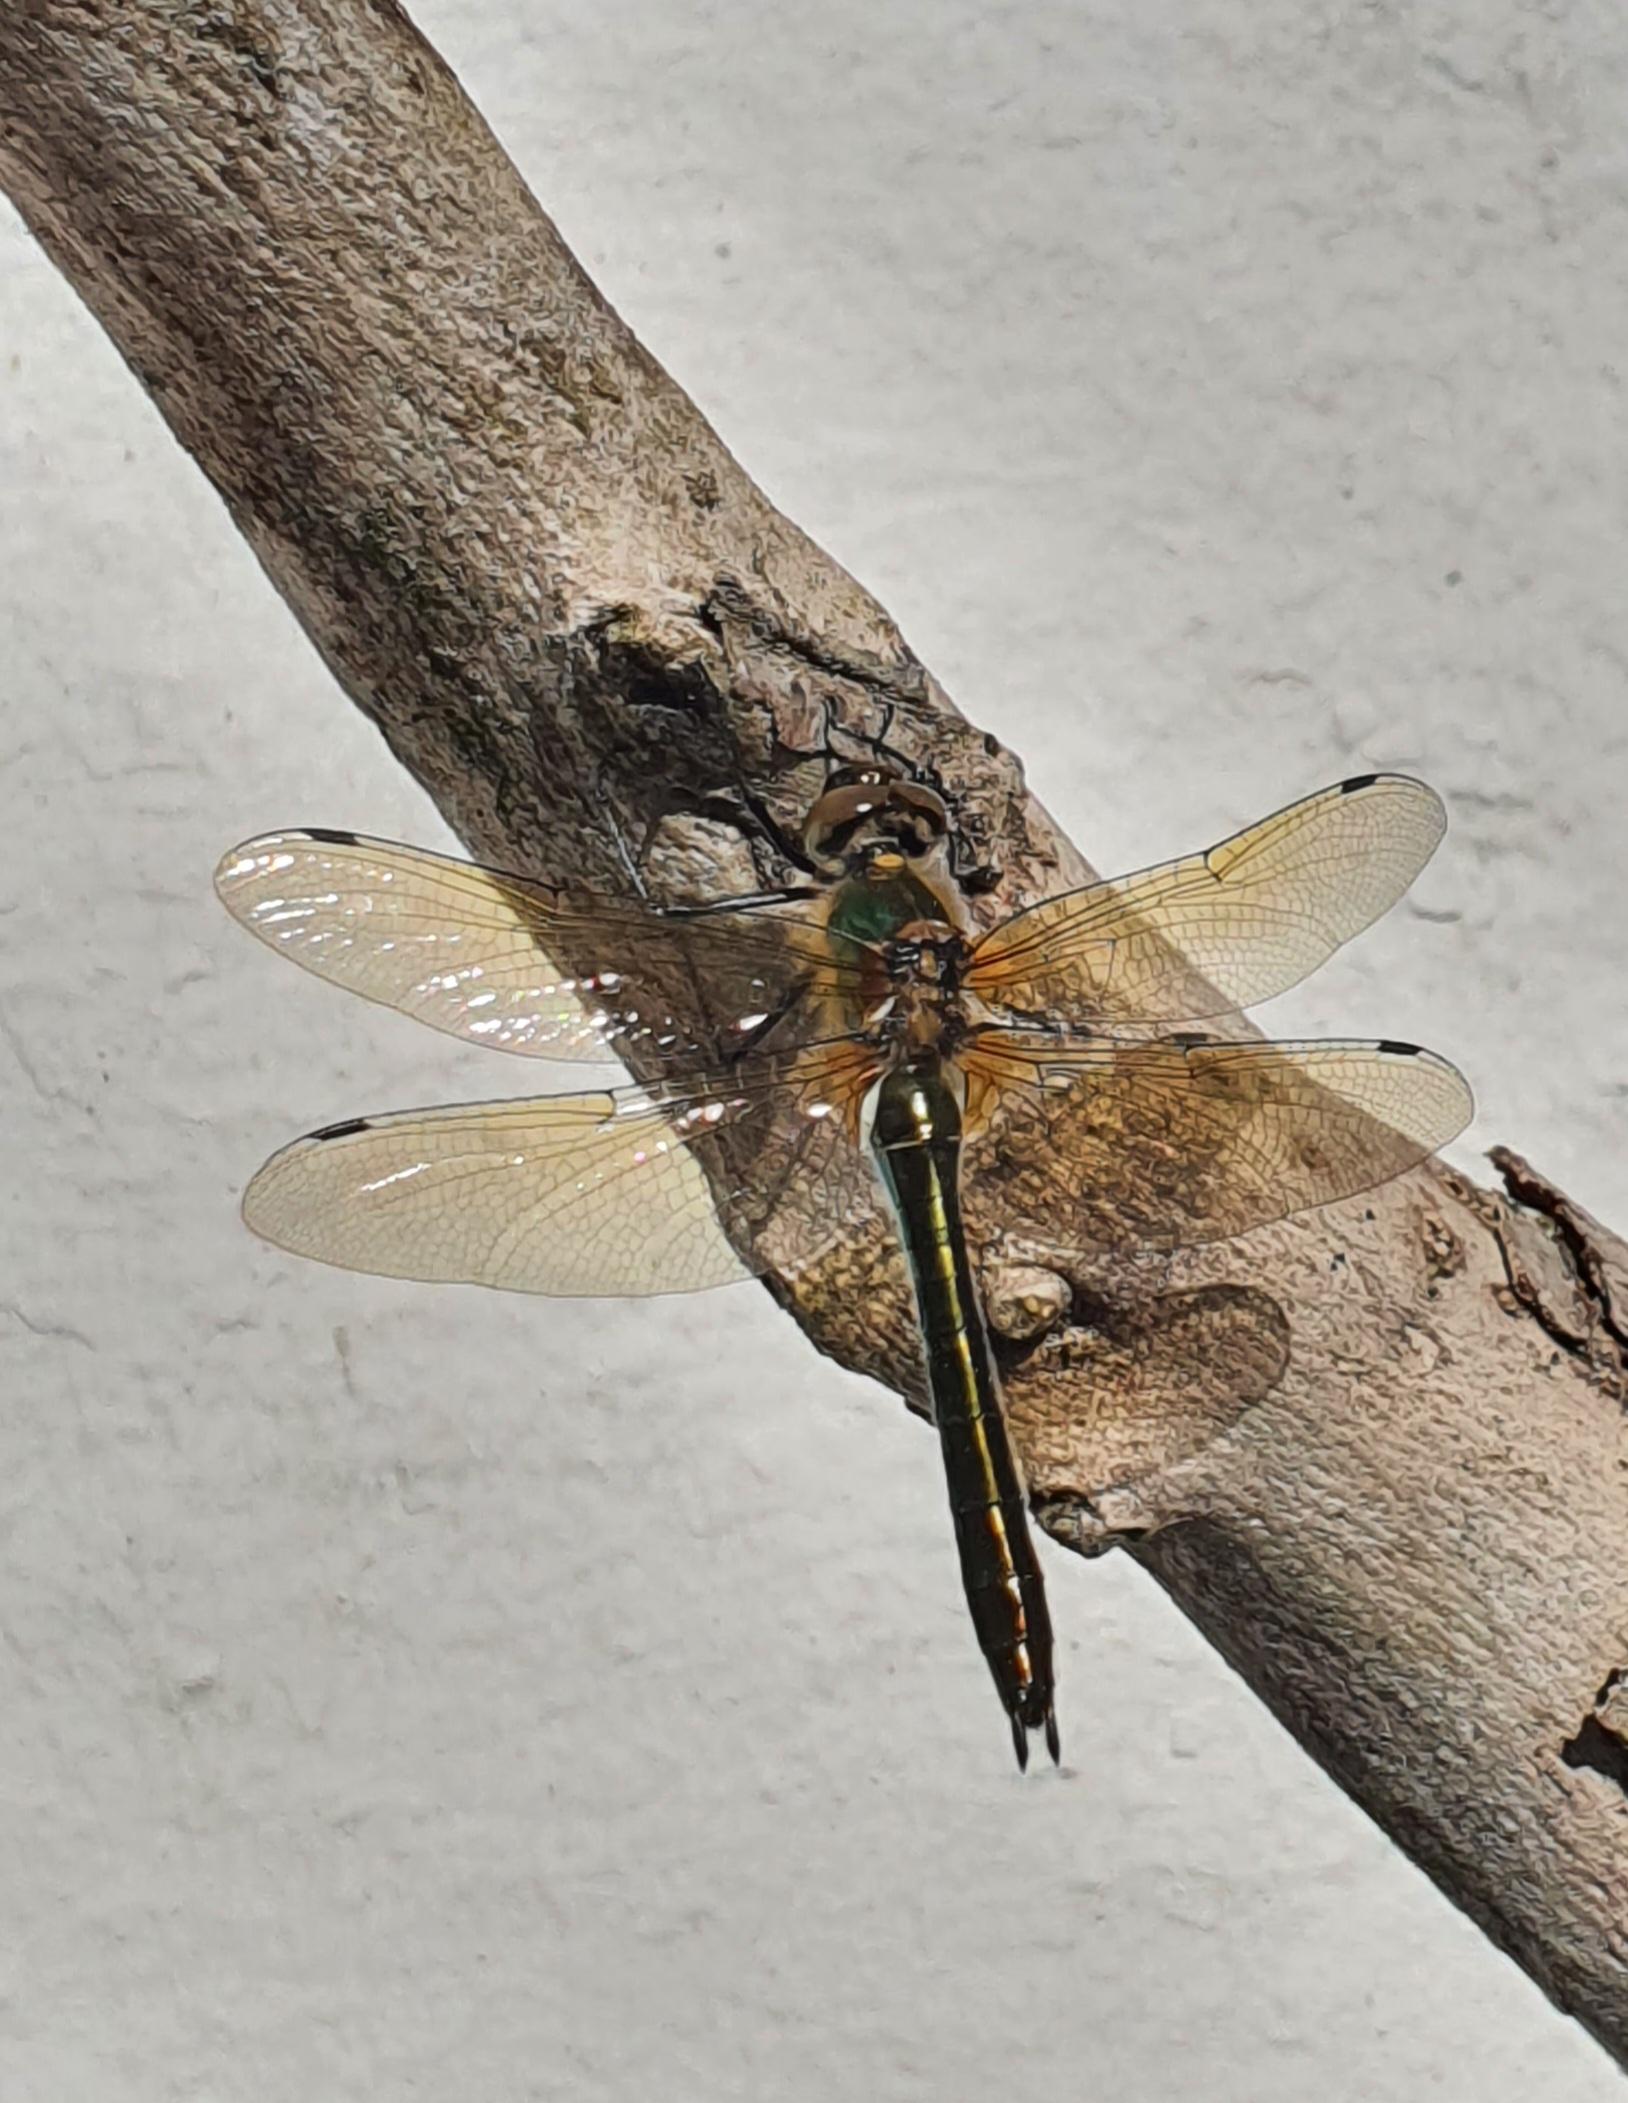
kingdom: Animalia
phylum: Arthropoda
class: Insecta
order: Odonata
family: Corduliidae
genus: Cordulia
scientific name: Cordulia aenea
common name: Grøn smaragdlibel
